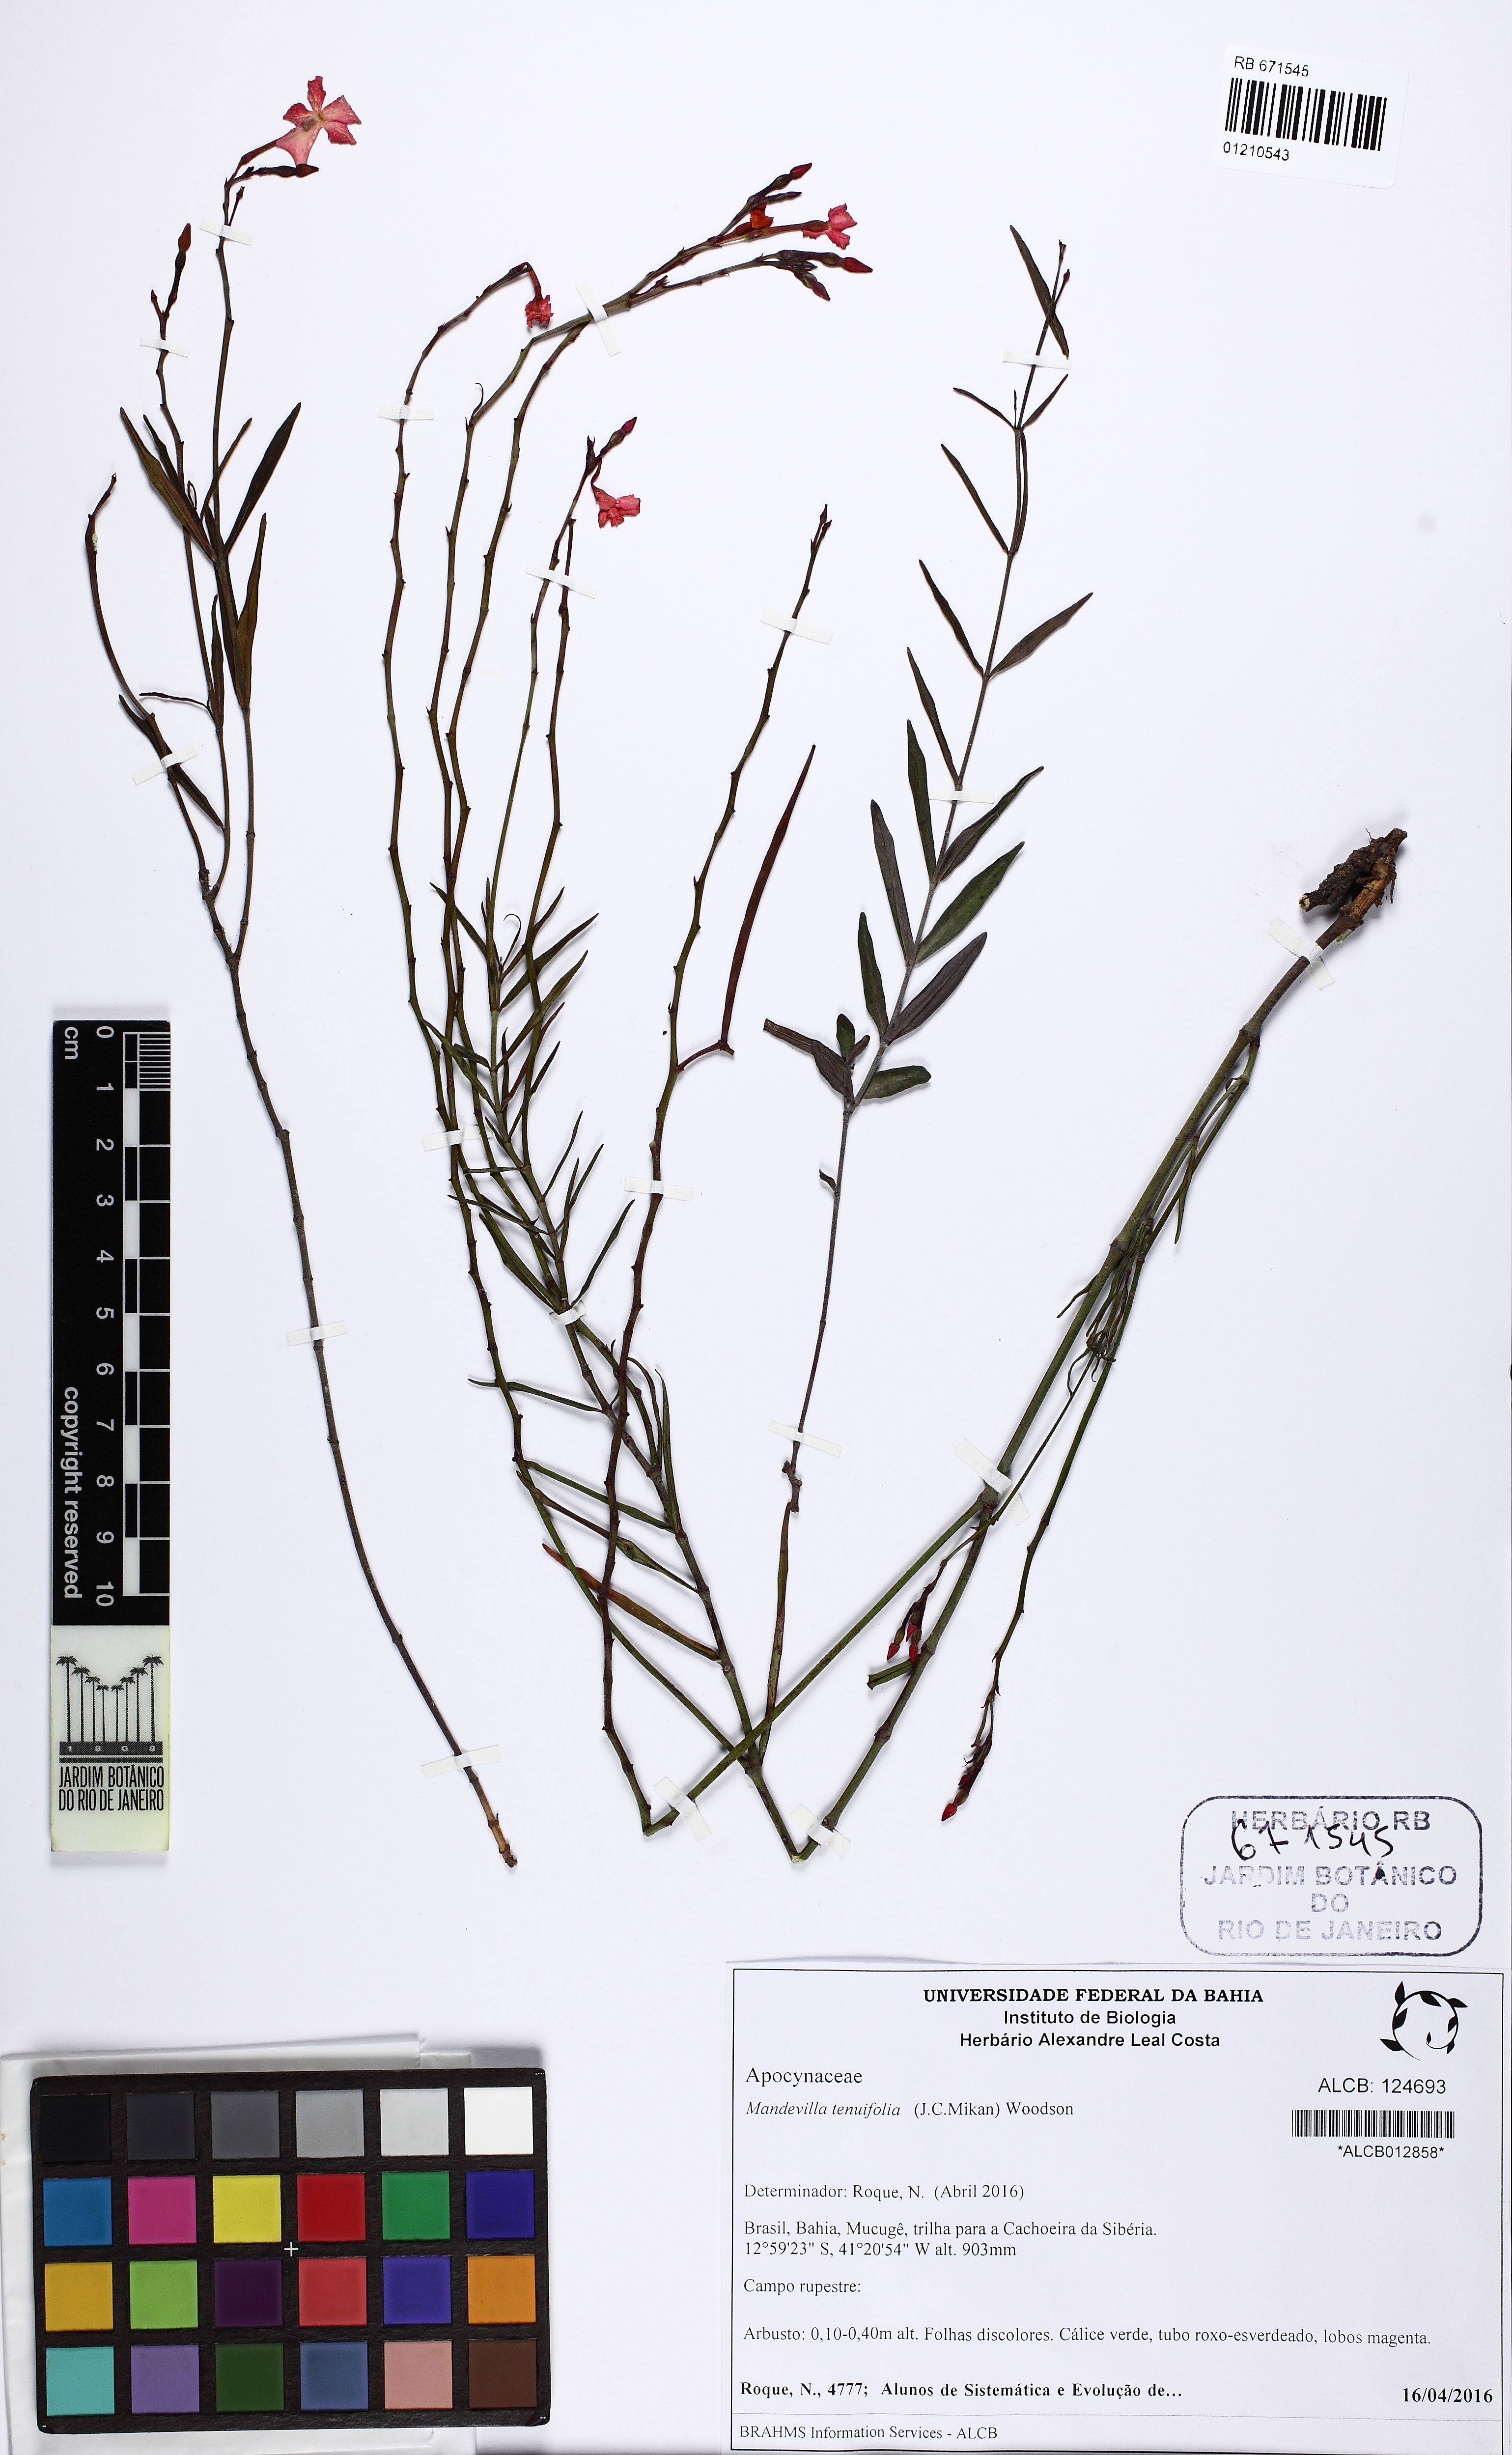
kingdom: Plantae
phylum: Tracheophyta
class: Magnoliopsida
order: Gentianales
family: Apocynaceae
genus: Mandevilla
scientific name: Mandevilla tenuifolia
